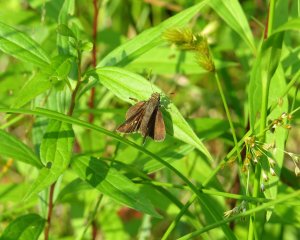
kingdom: Animalia
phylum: Arthropoda
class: Insecta
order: Lepidoptera
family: Hesperiidae
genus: Euphyes
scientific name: Euphyes vestris
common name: Dun Skipper
